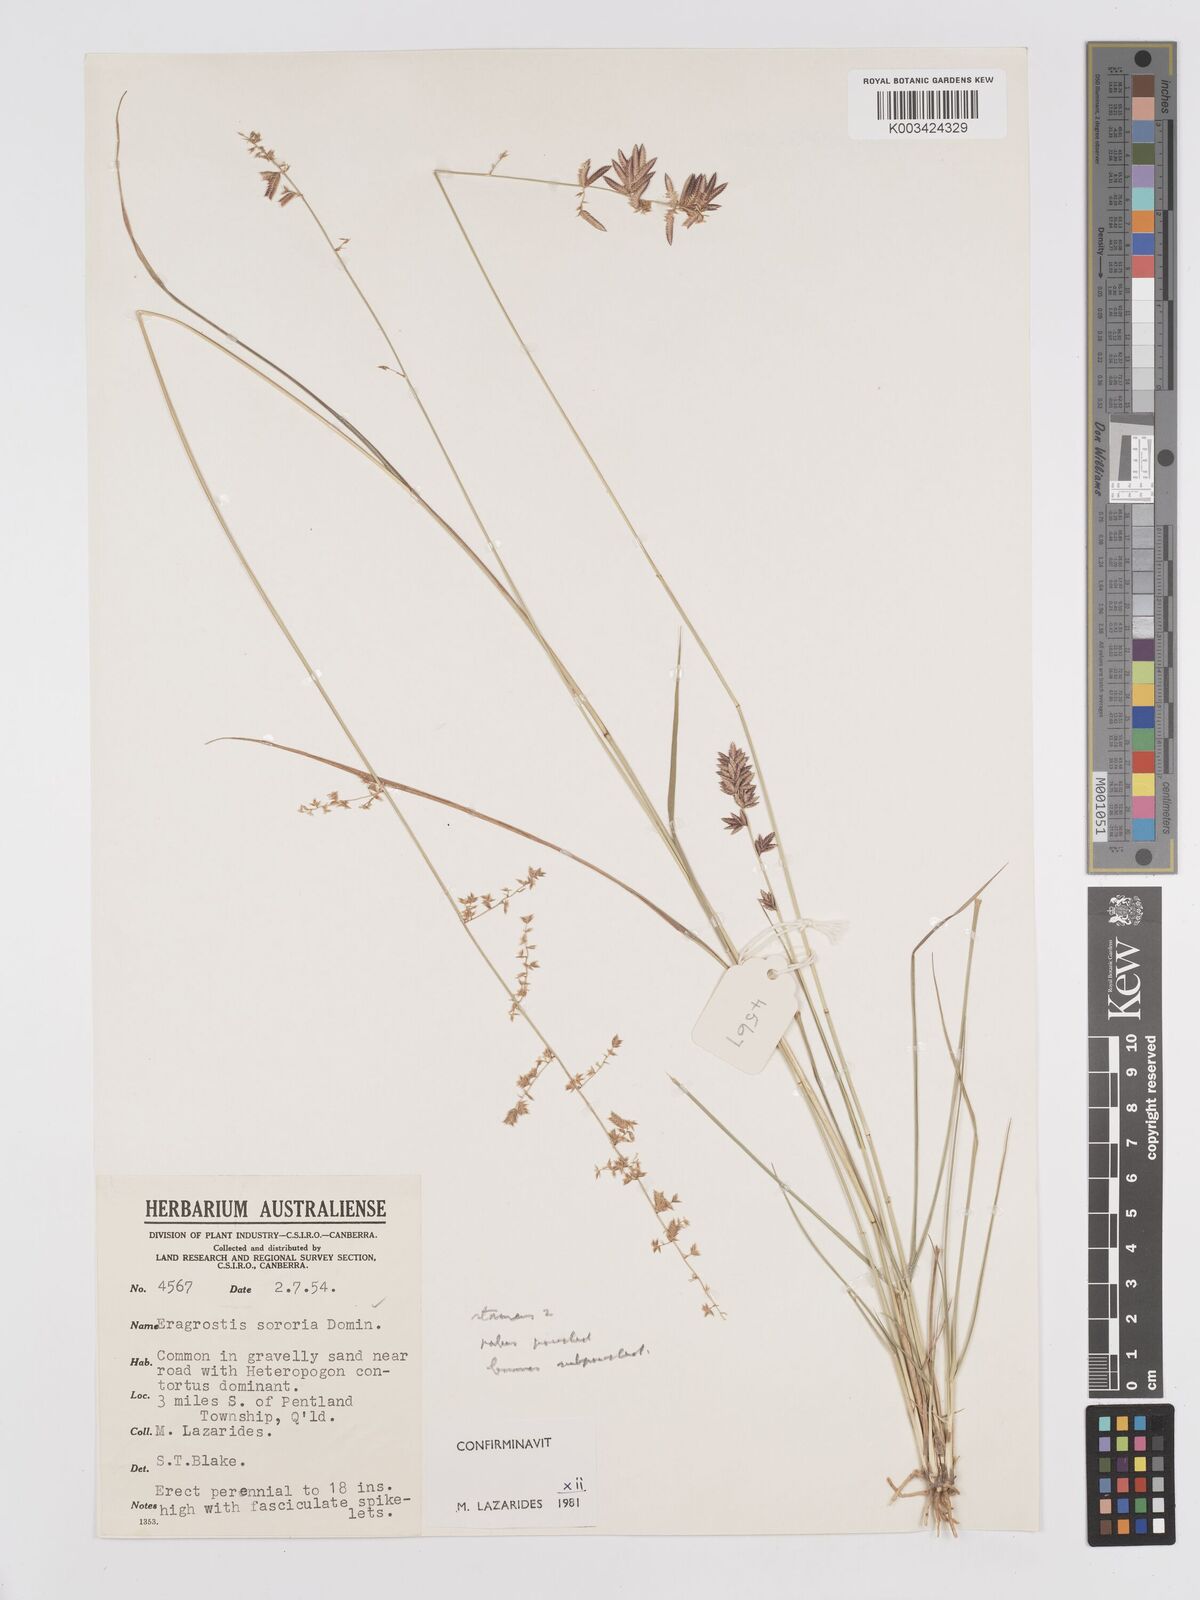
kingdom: Plantae
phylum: Tracheophyta
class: Liliopsida
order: Poales
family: Poaceae
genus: Eragrostis
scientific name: Eragrostis sororia
